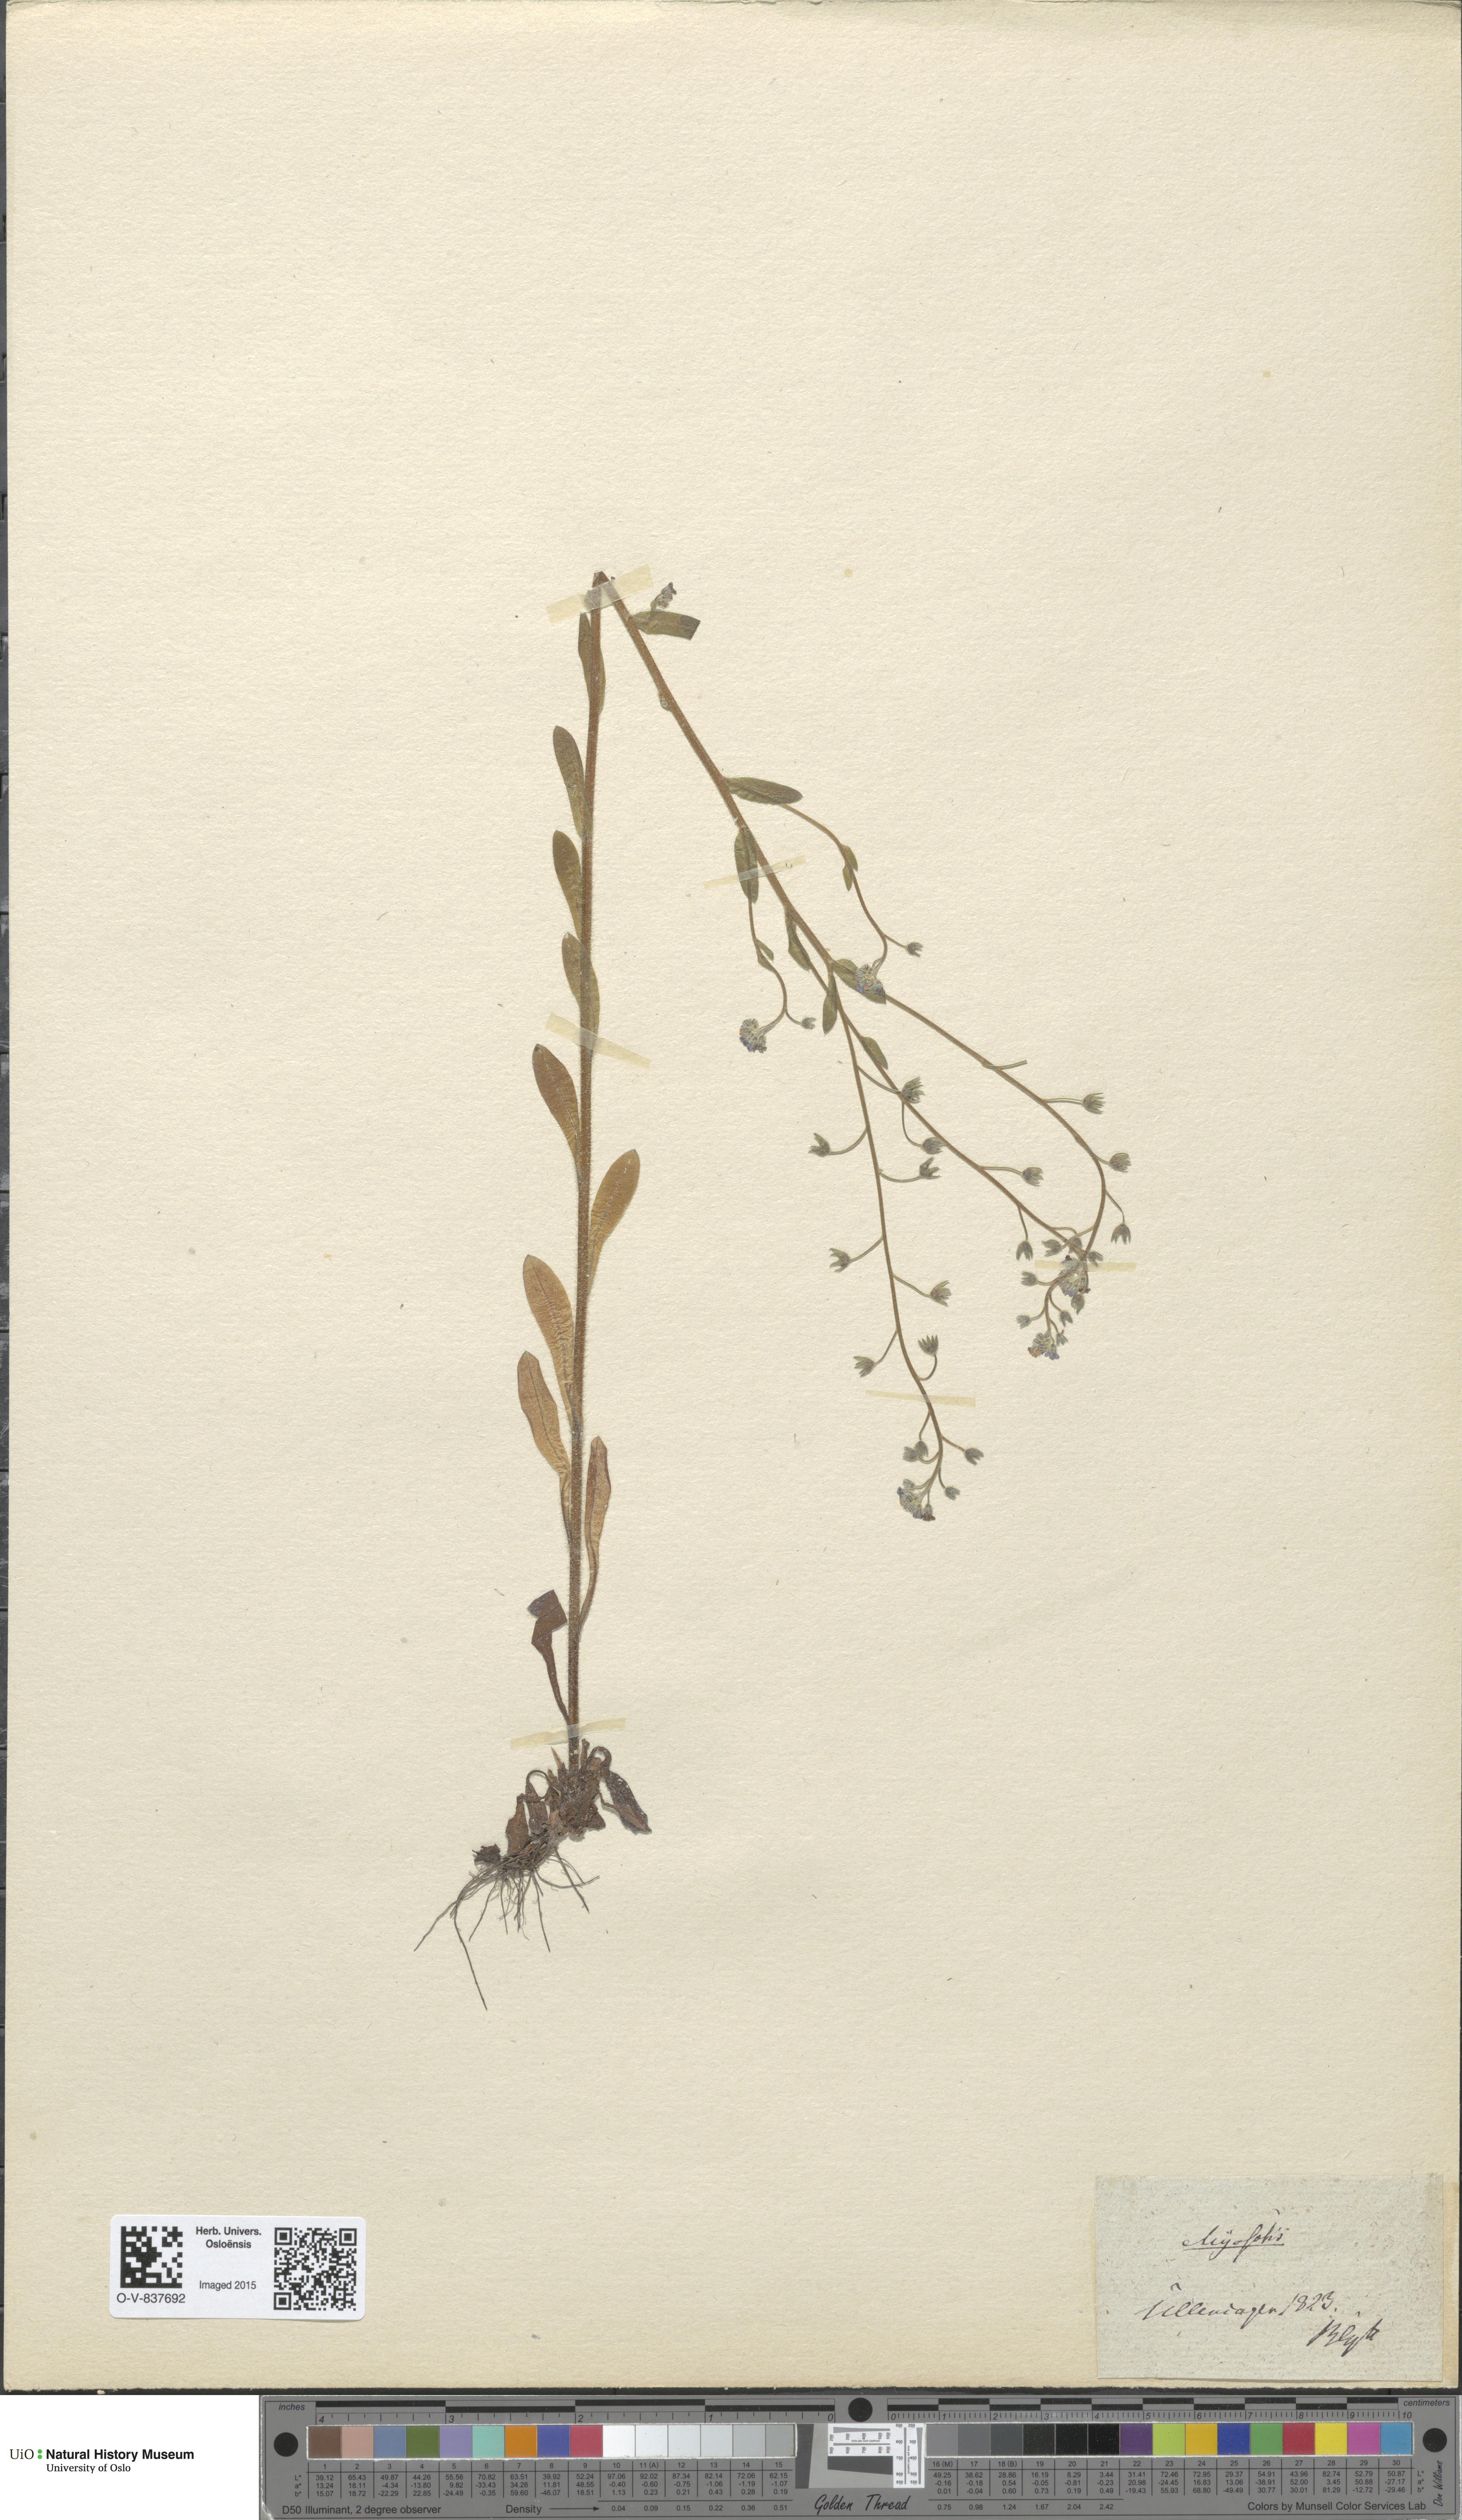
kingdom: Plantae
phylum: Tracheophyta
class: Magnoliopsida
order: Boraginales
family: Boraginaceae
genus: Myosotis
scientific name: Myosotis
